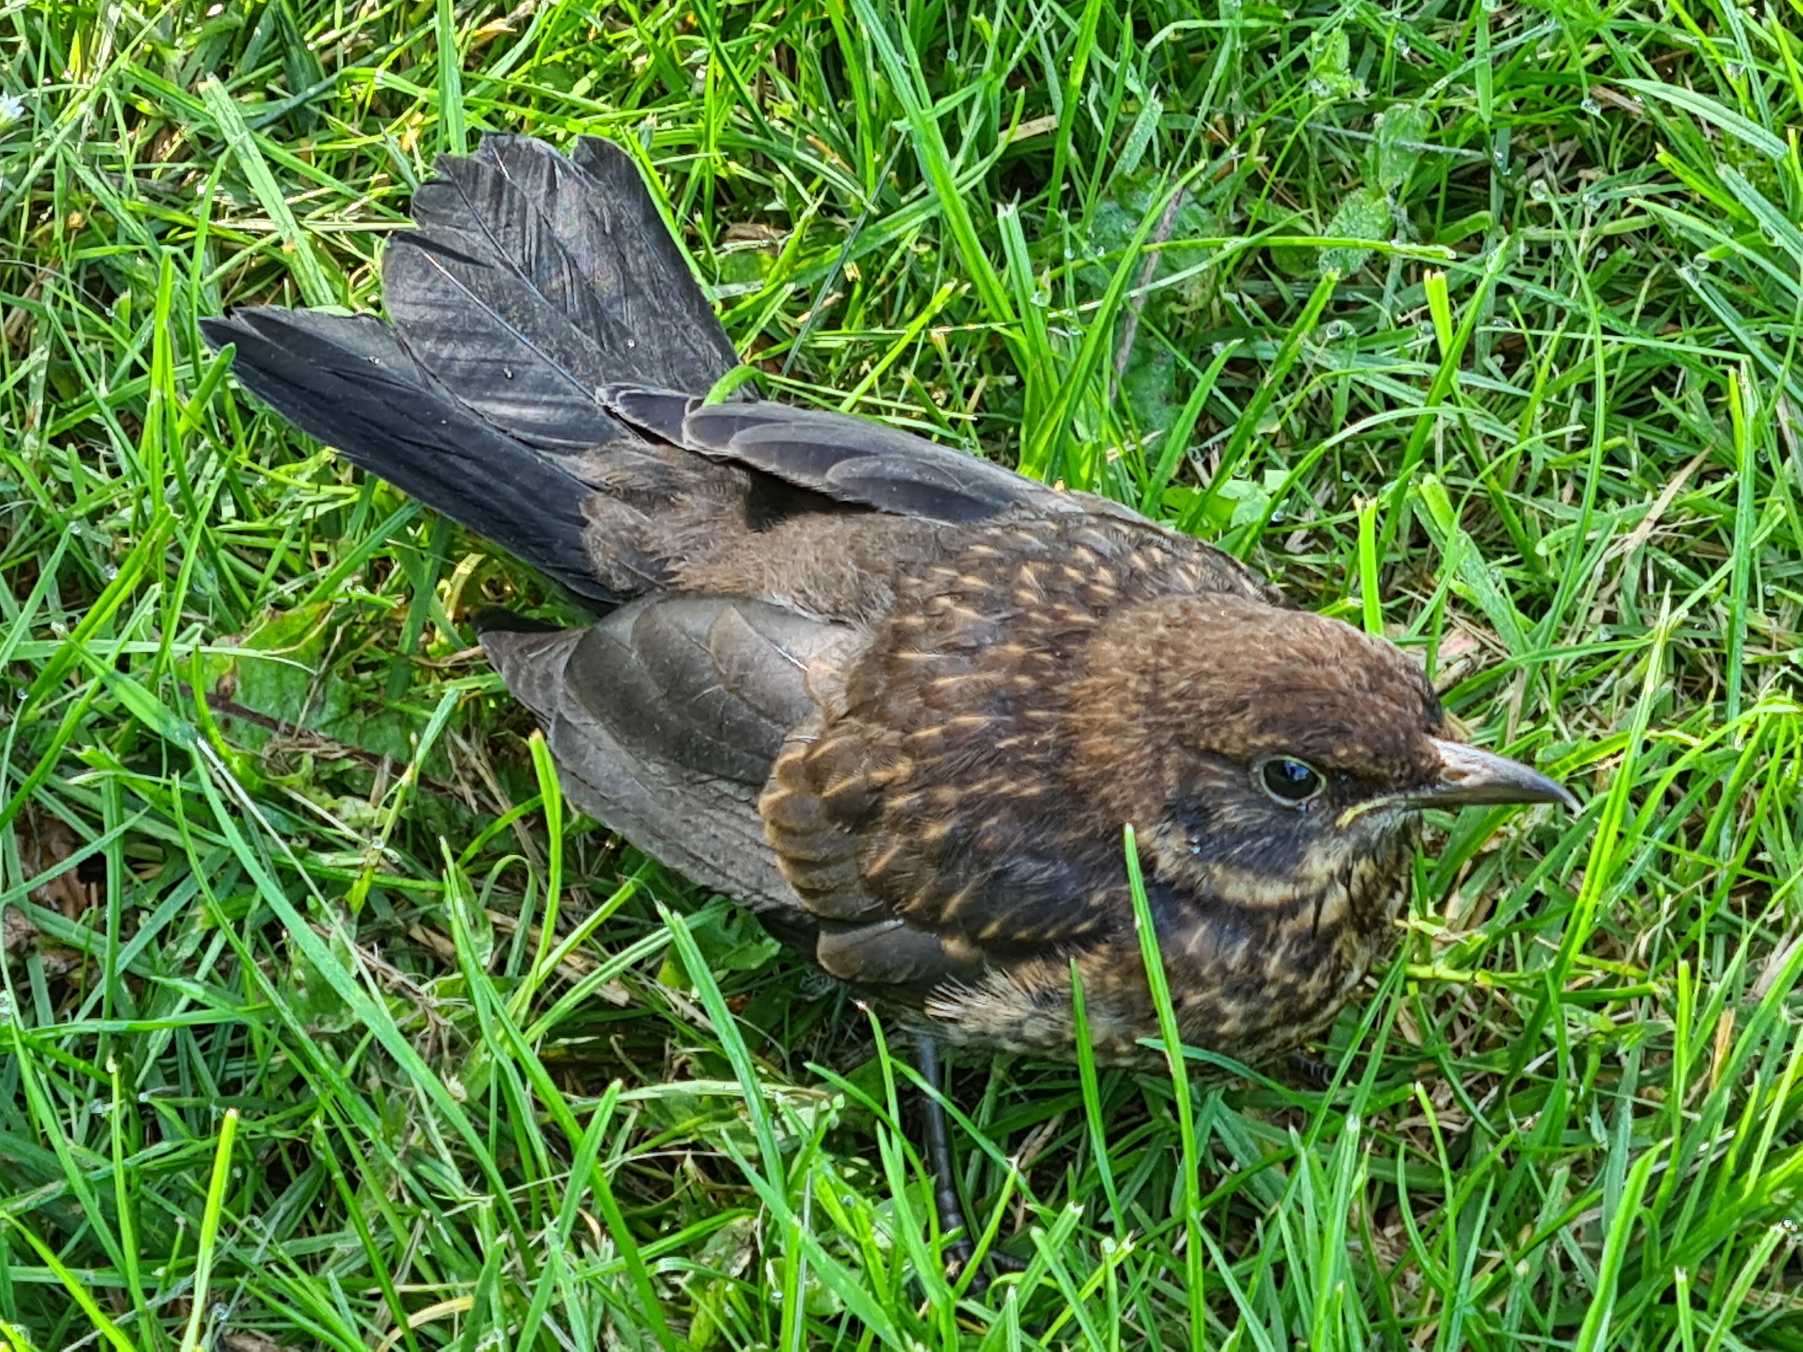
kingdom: Animalia
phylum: Chordata
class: Aves
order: Passeriformes
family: Turdidae
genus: Turdus
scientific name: Turdus merula
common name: Solsort
